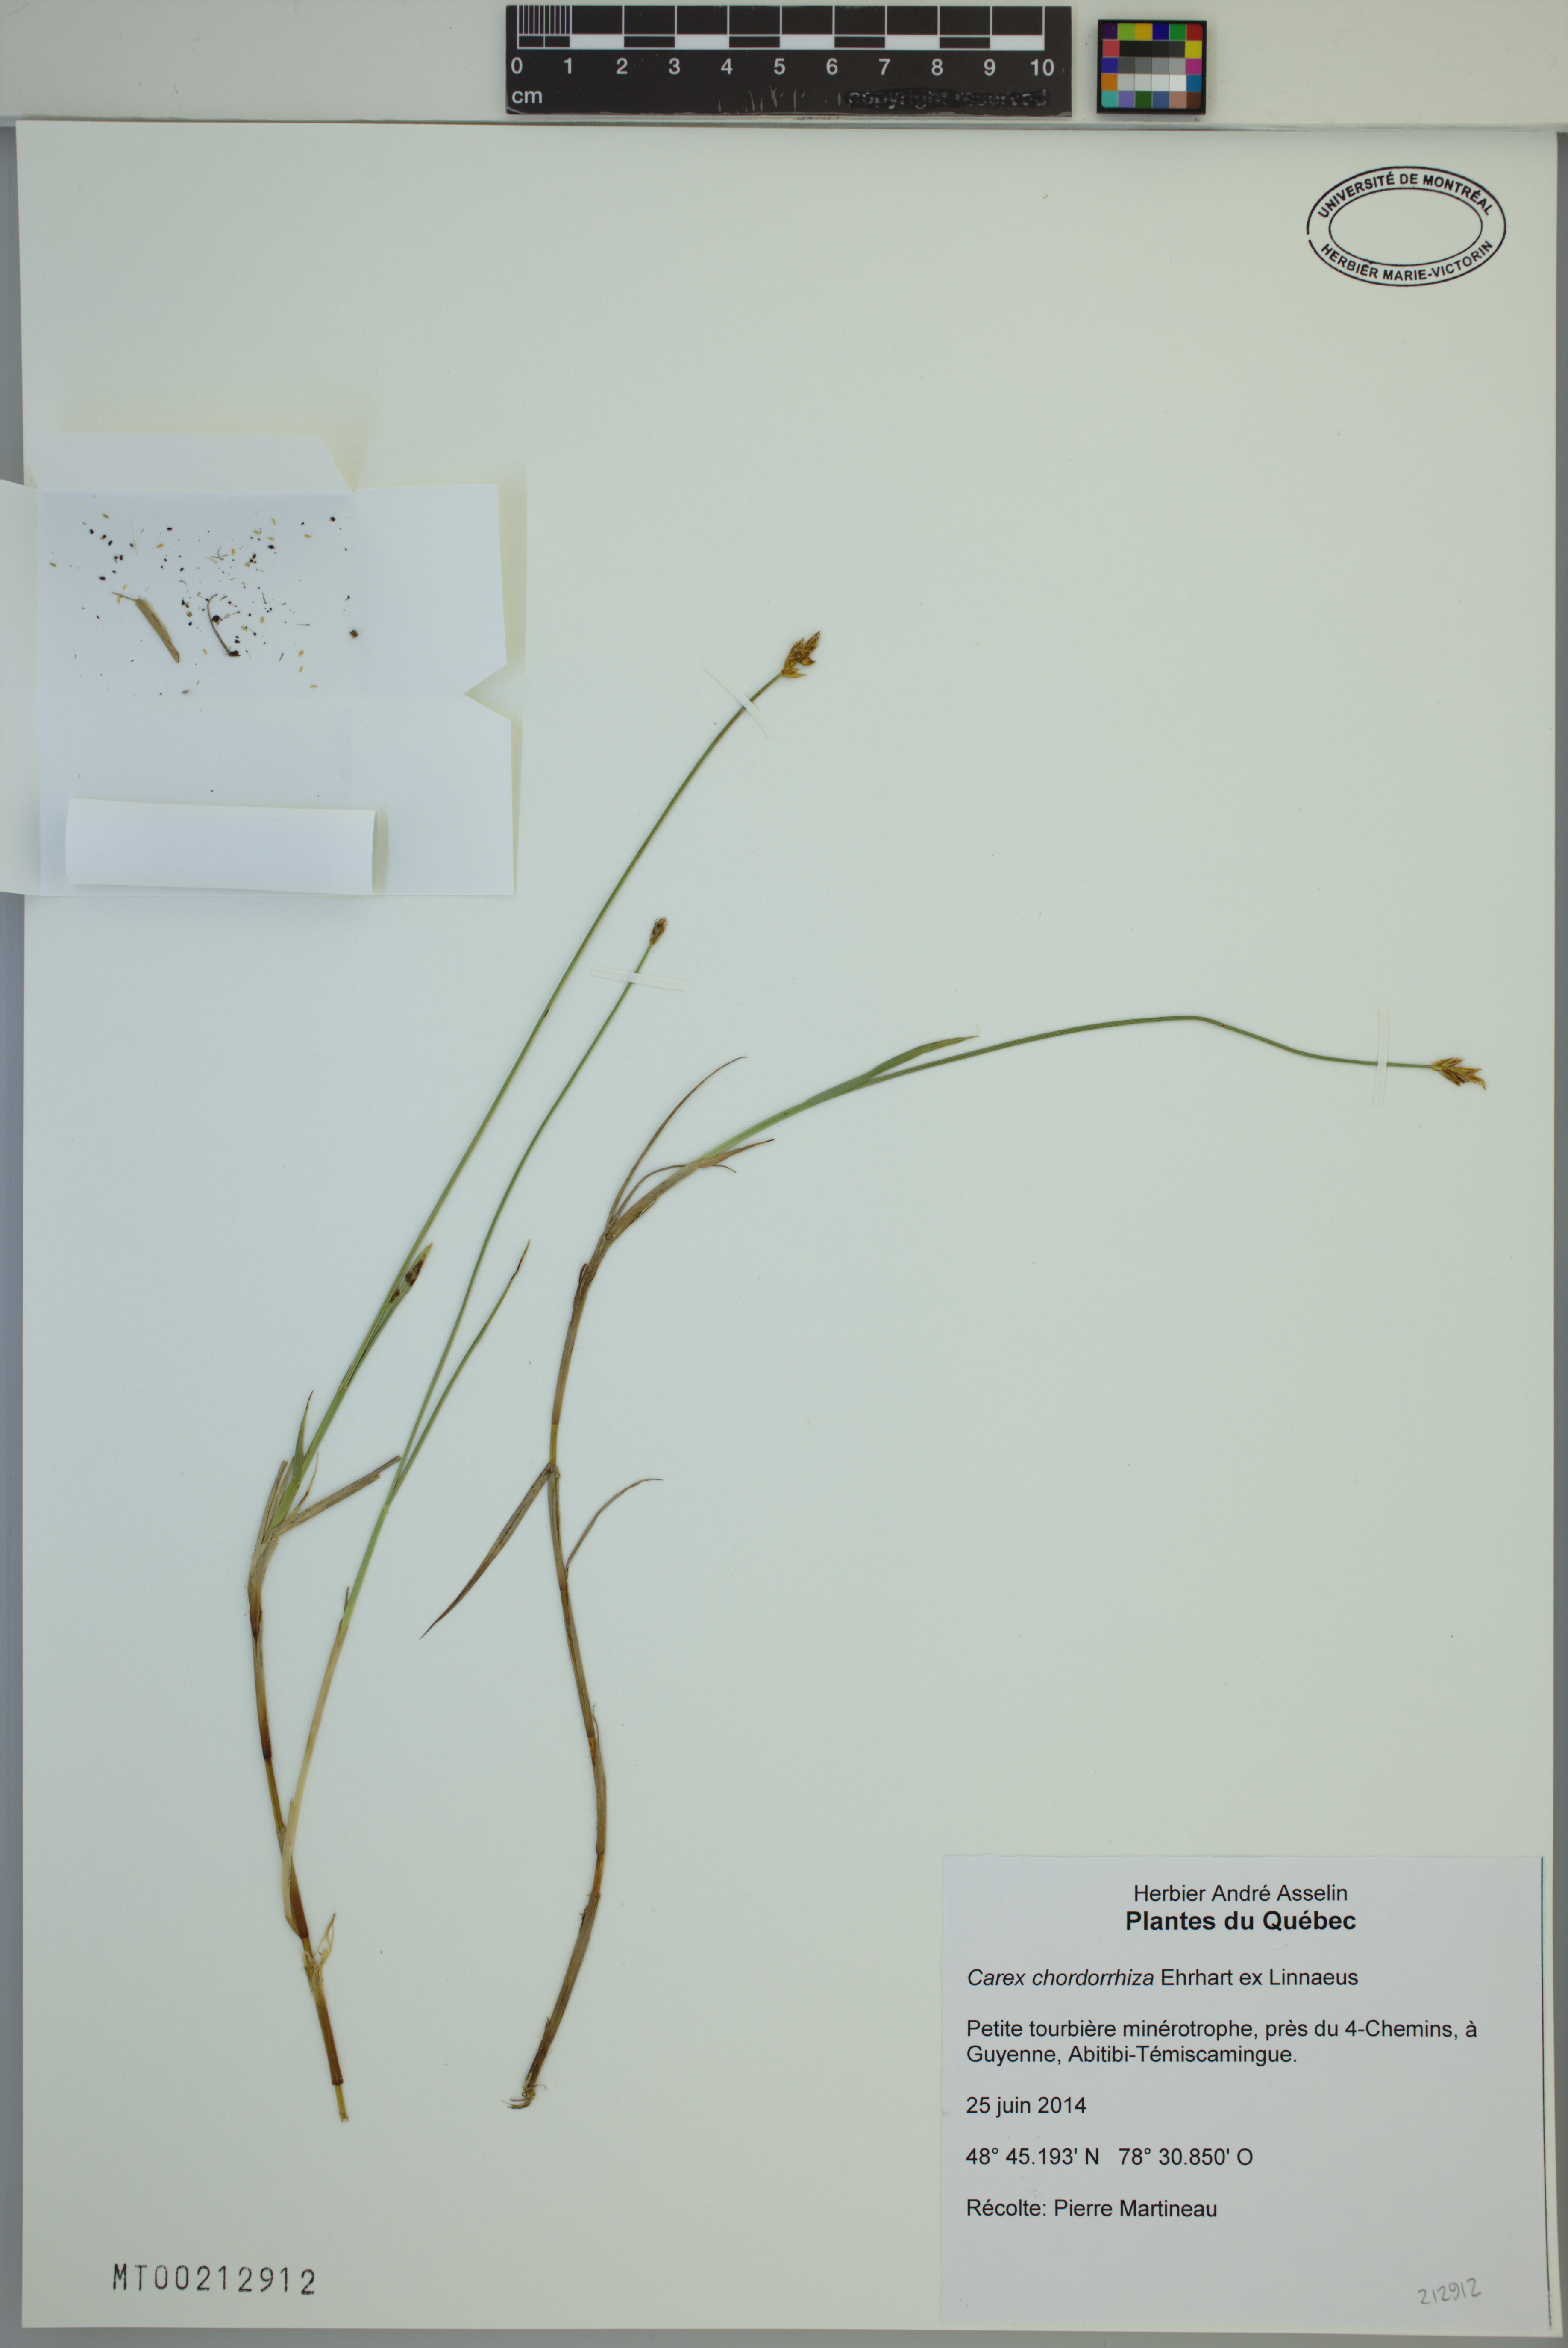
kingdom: Plantae
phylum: Tracheophyta
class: Liliopsida
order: Poales
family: Cyperaceae
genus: Carex
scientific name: Carex chordorrhiza
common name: String sedge
